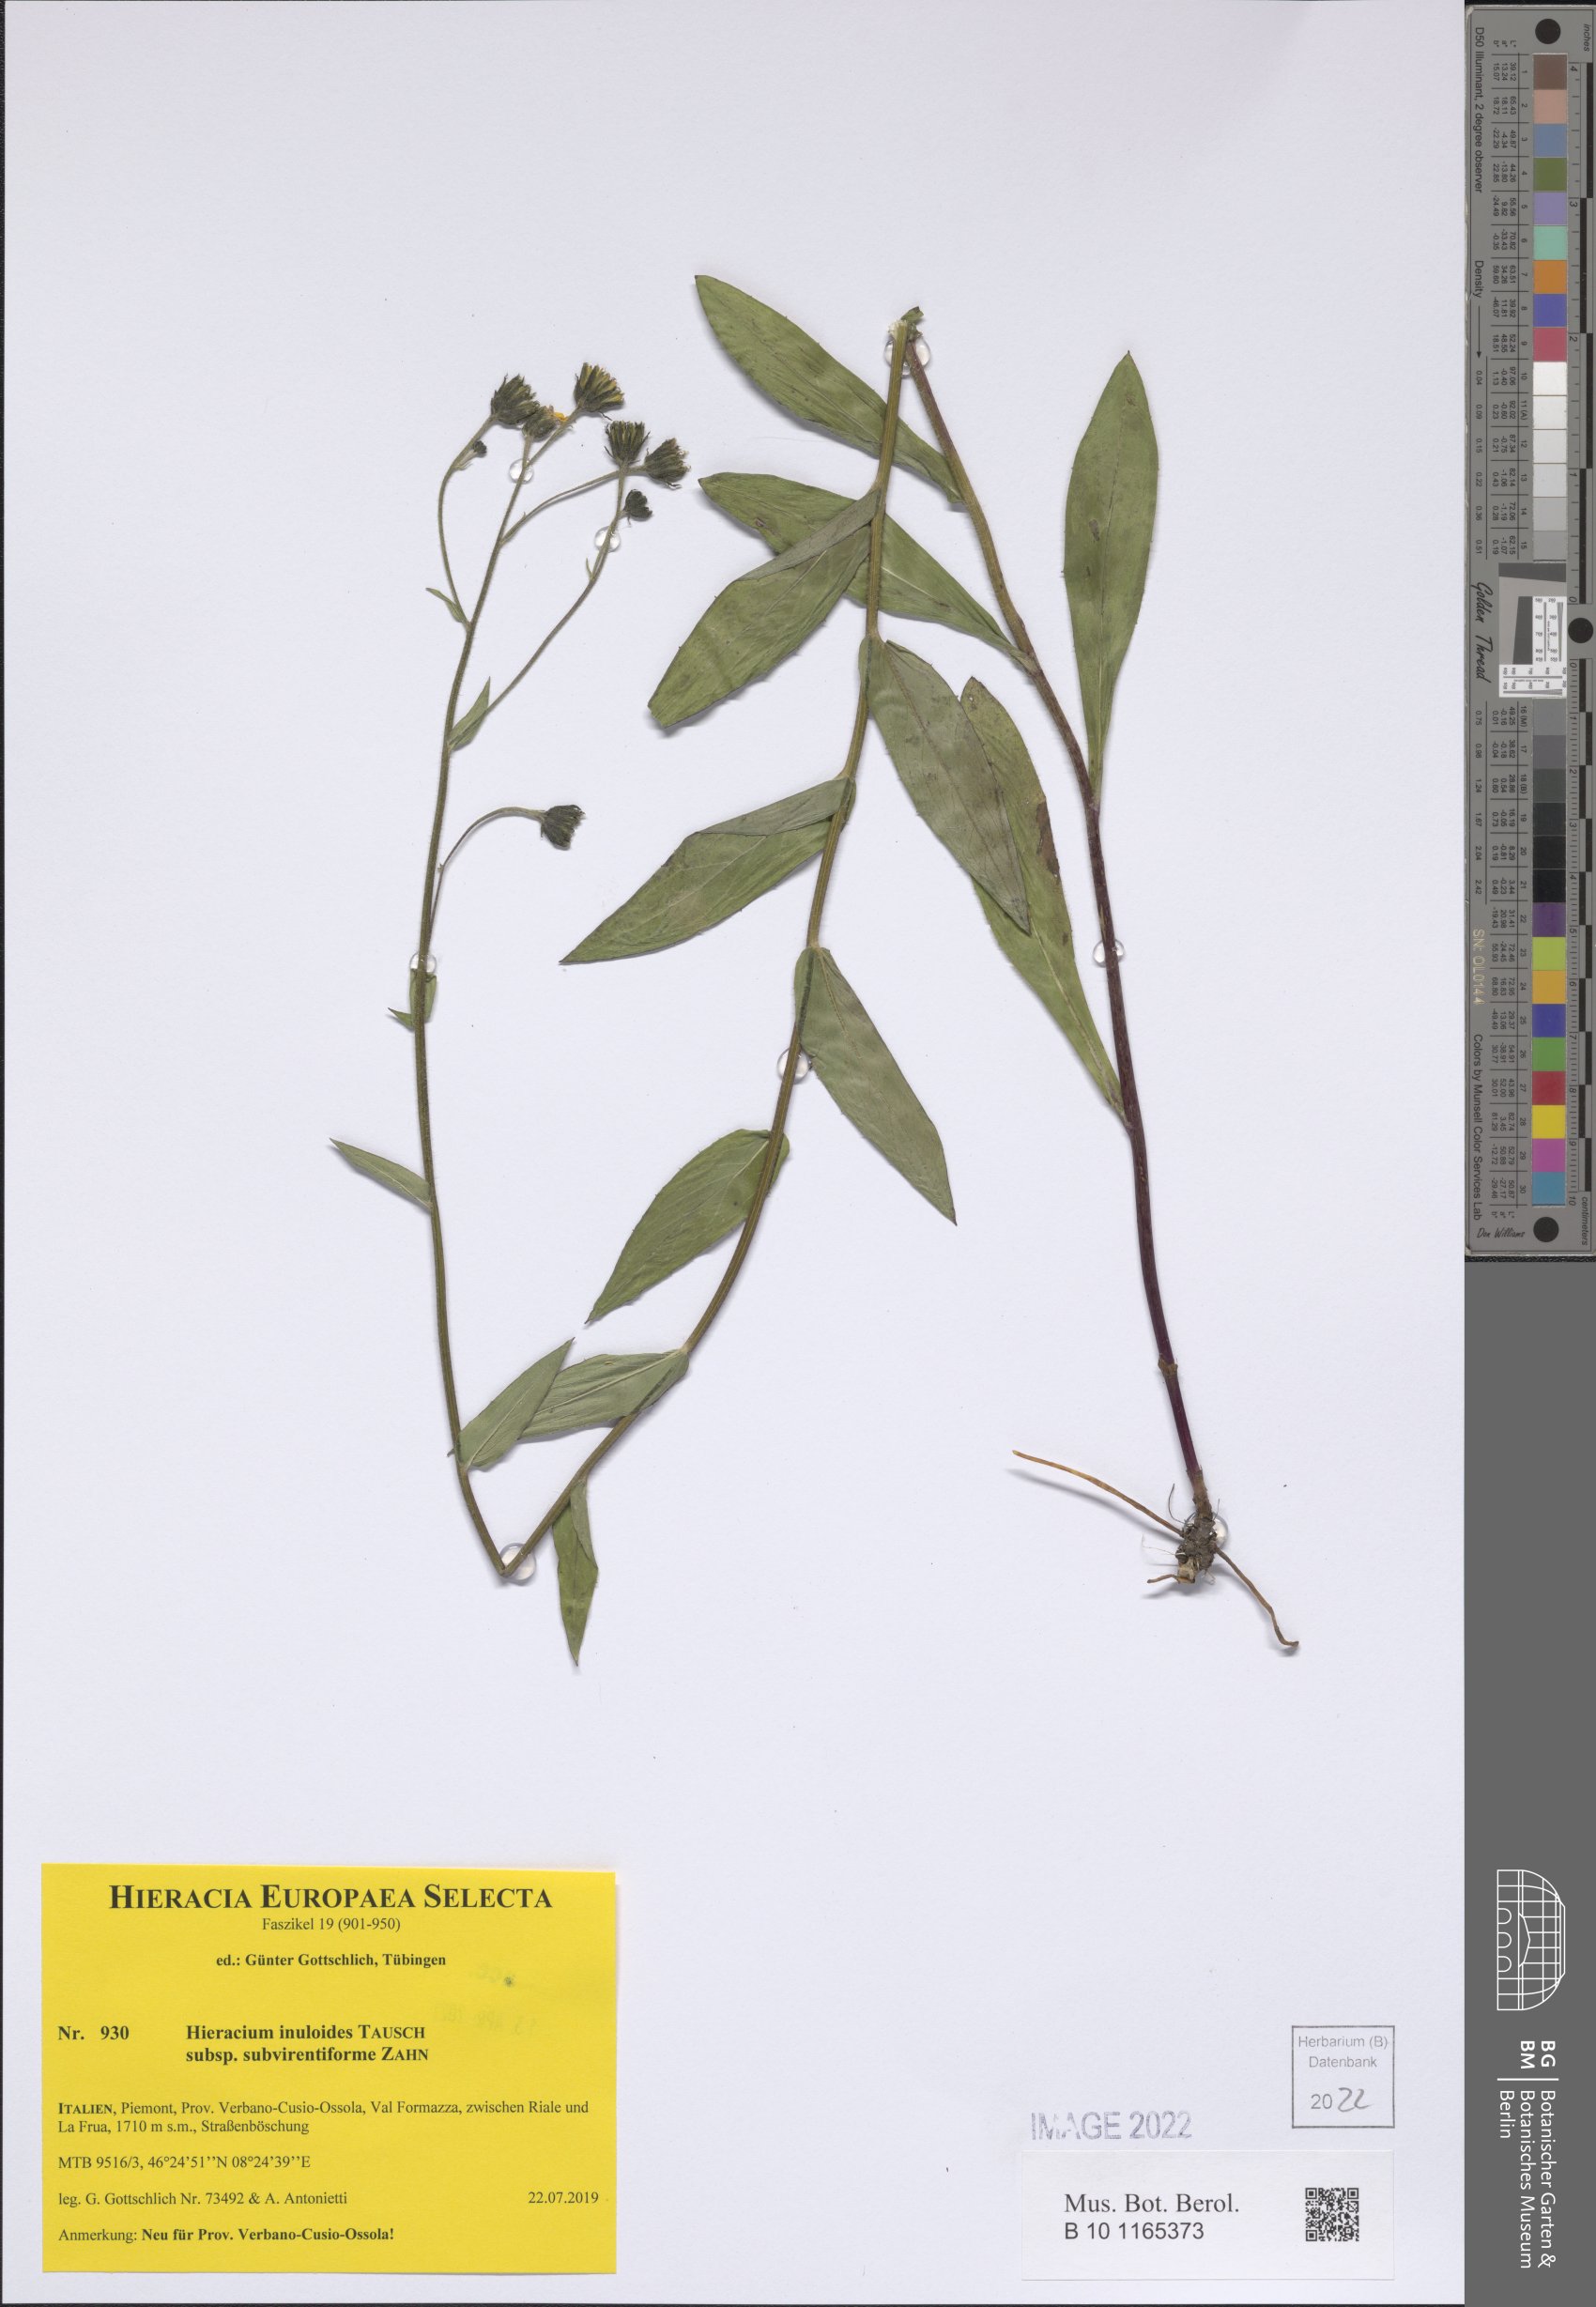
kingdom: Plantae
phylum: Tracheophyta
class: Magnoliopsida
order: Asterales
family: Asteraceae
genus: Hieracium
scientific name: Hieracium inuloides
